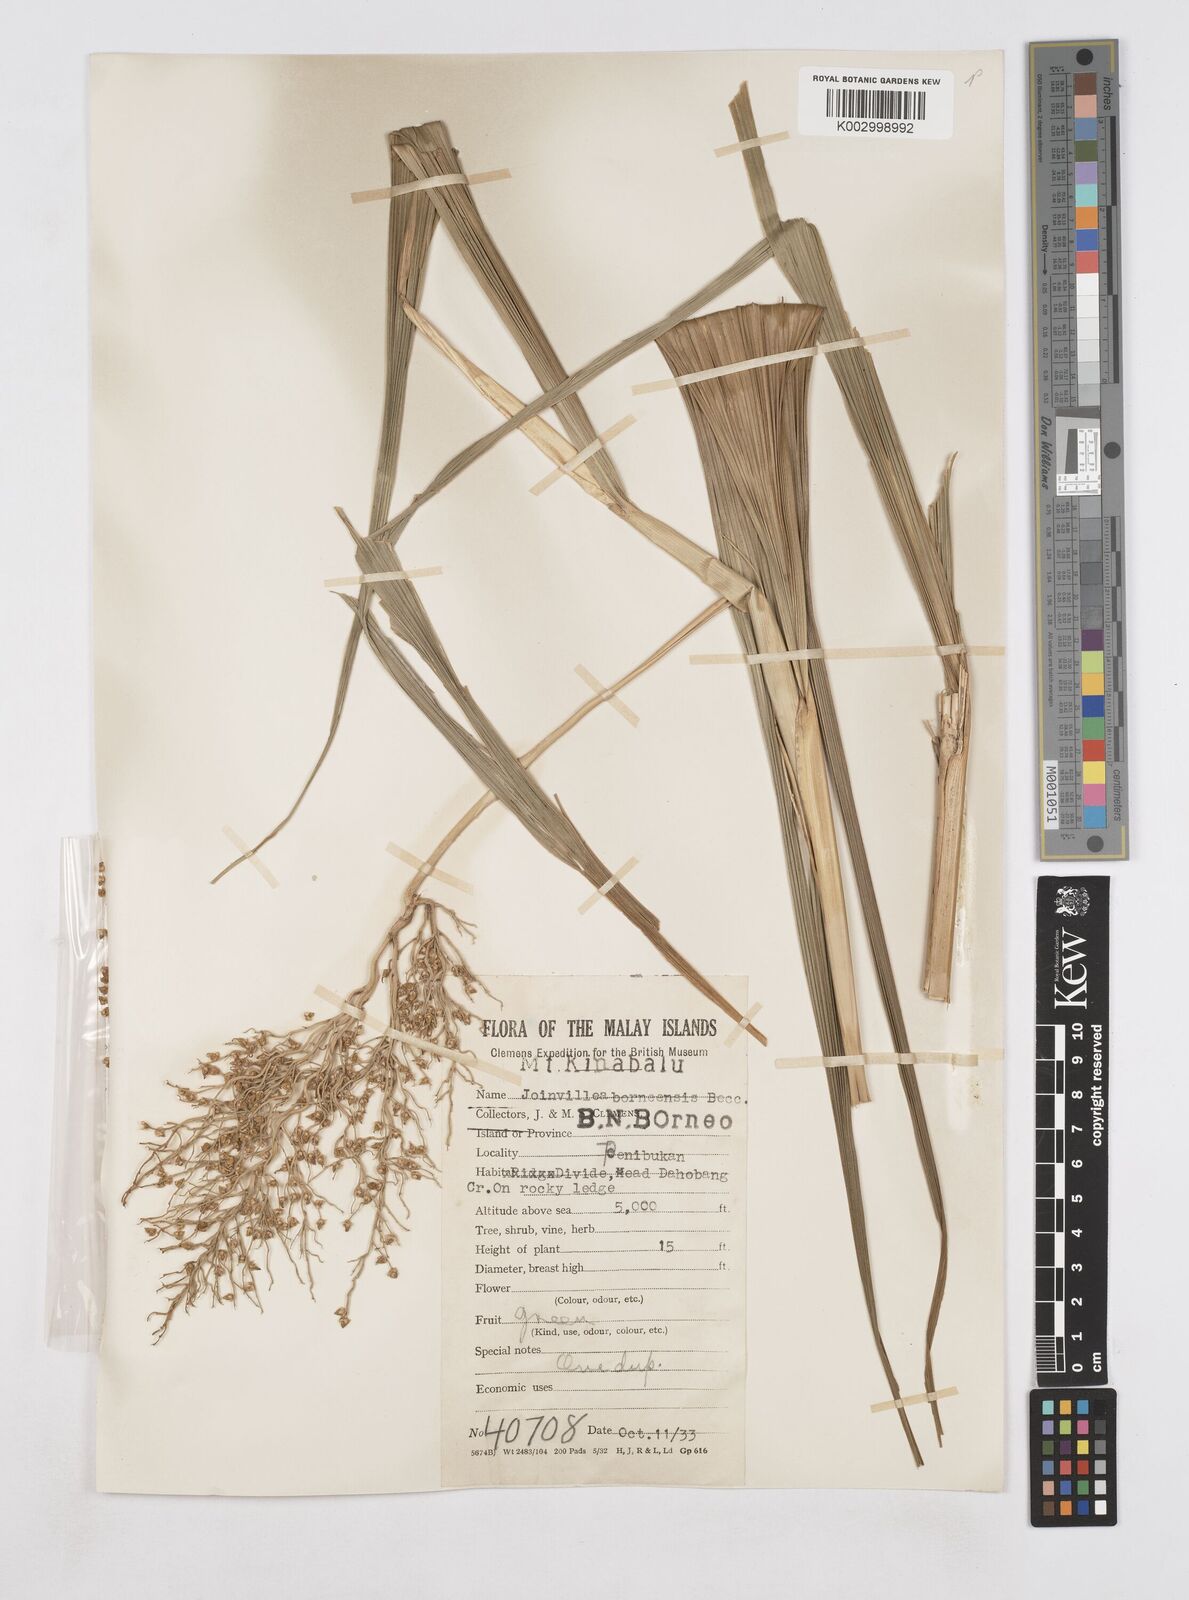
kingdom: Plantae
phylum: Tracheophyta
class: Liliopsida
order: Poales
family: Joinvilleaceae
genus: Joinvillea
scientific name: Joinvillea borneensis
